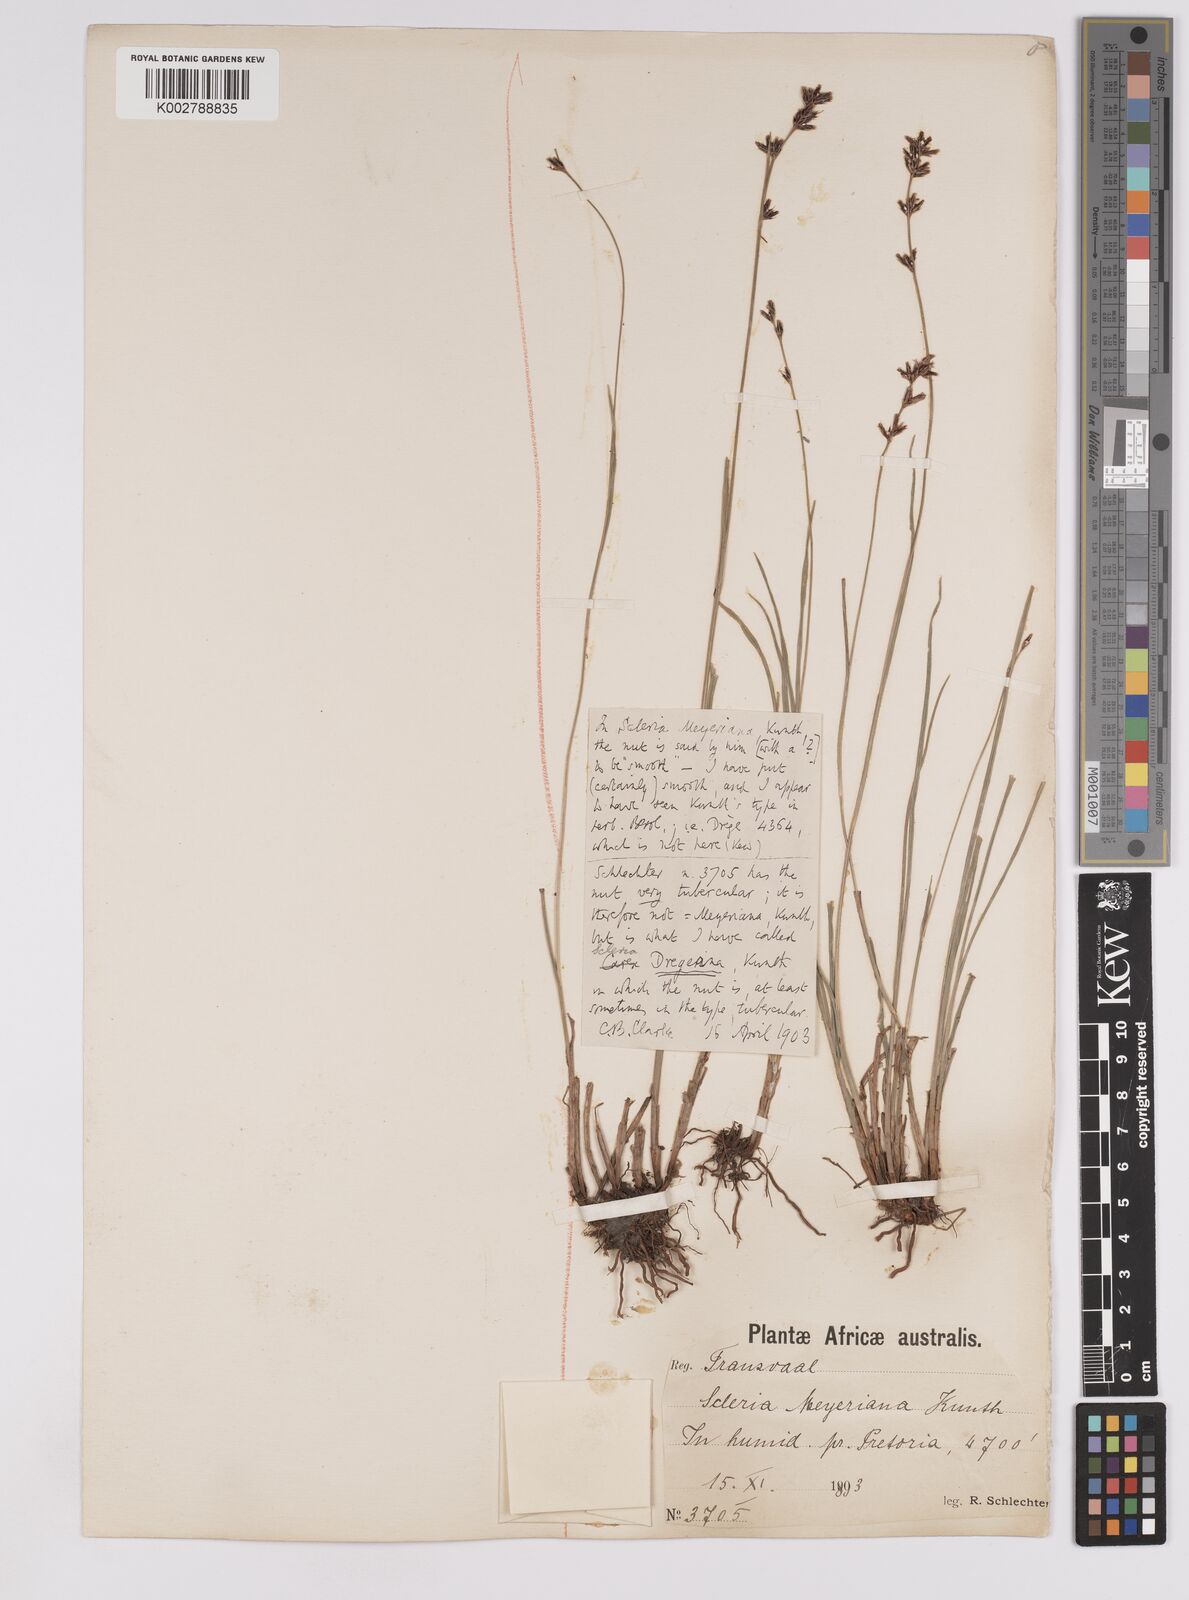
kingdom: Plantae
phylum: Tracheophyta
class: Liliopsida
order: Poales
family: Cyperaceae
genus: Scleria
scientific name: Scleria dregeana
